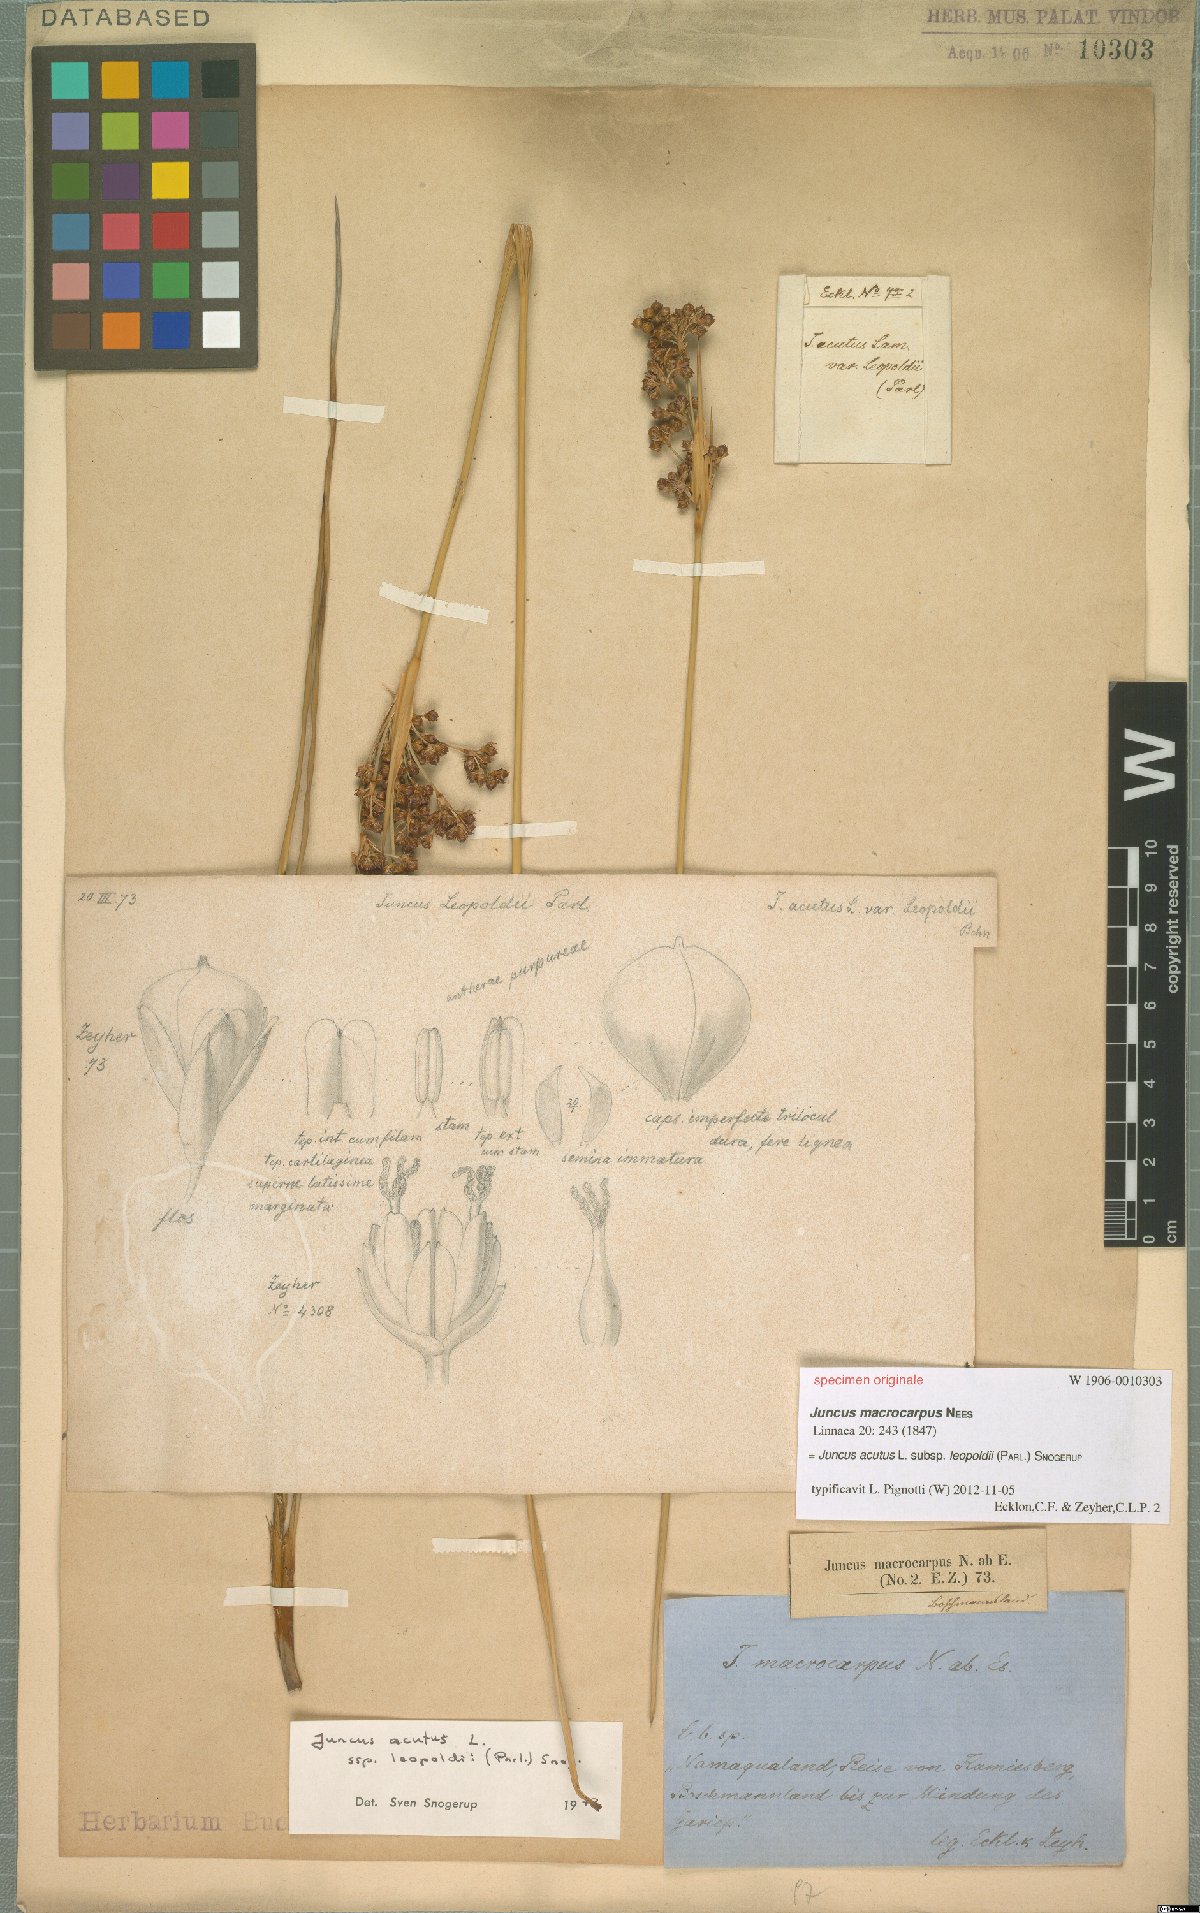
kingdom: Plantae
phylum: Tracheophyta
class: Liliopsida
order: Poales
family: Juncaceae
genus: Juncus
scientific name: Juncus acutus
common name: Sharp rush
